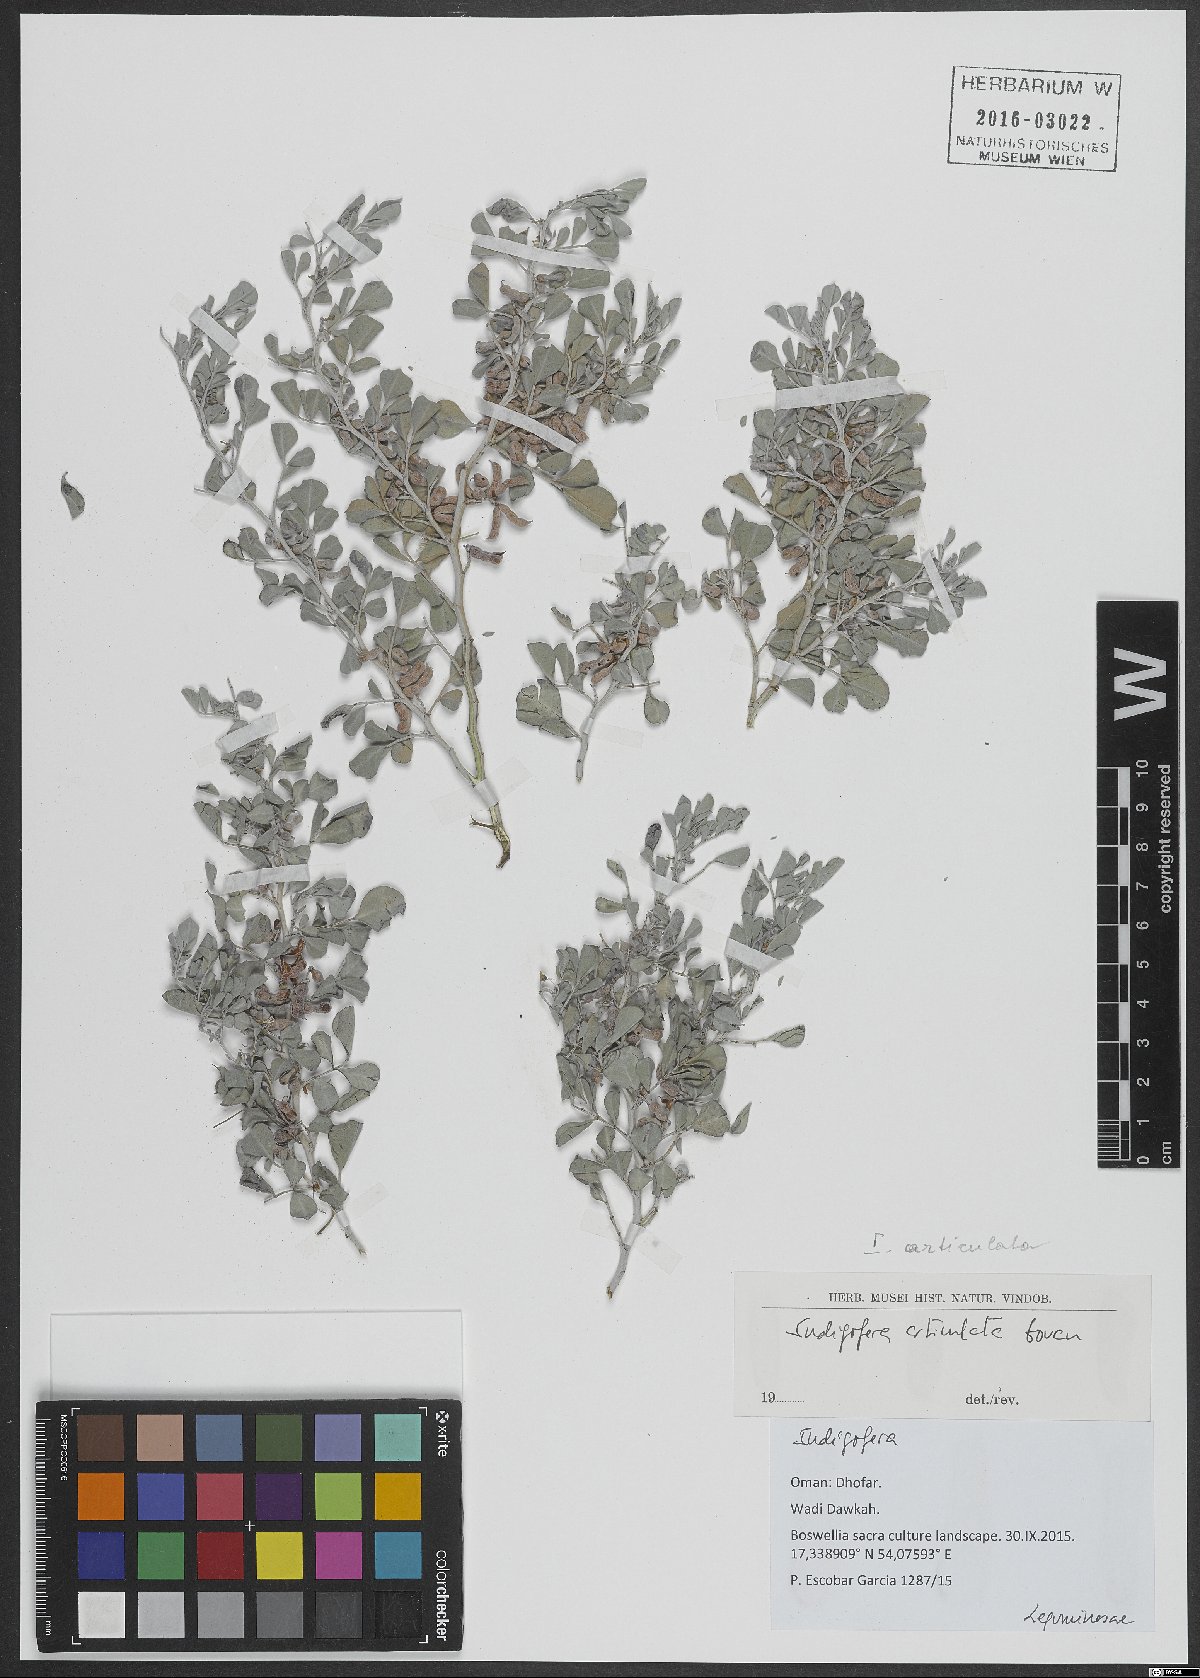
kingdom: Plantae
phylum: Tracheophyta
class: Magnoliopsida
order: Fabales
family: Fabaceae
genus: Indigofera
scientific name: Indigofera articulata
